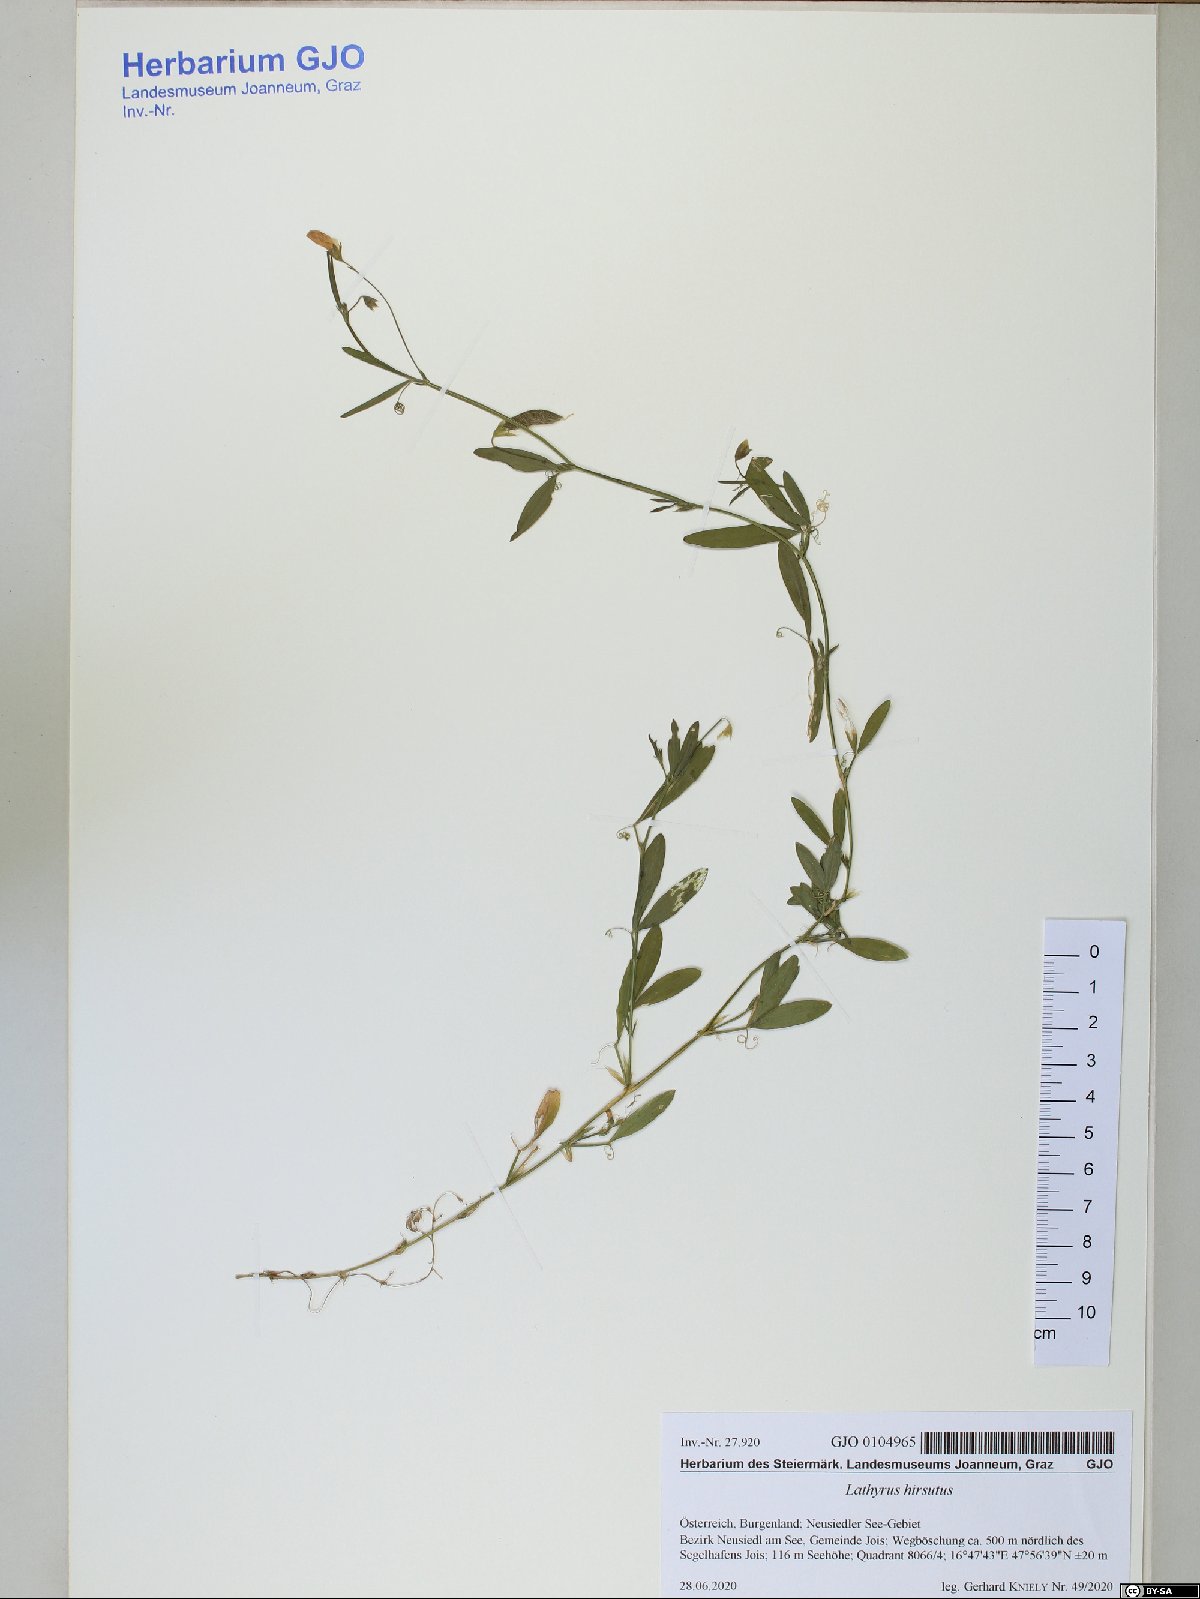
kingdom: Plantae
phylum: Tracheophyta
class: Magnoliopsida
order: Fabales
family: Fabaceae
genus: Lathyrus
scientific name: Lathyrus hirsutus
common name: Hairy vetchling
